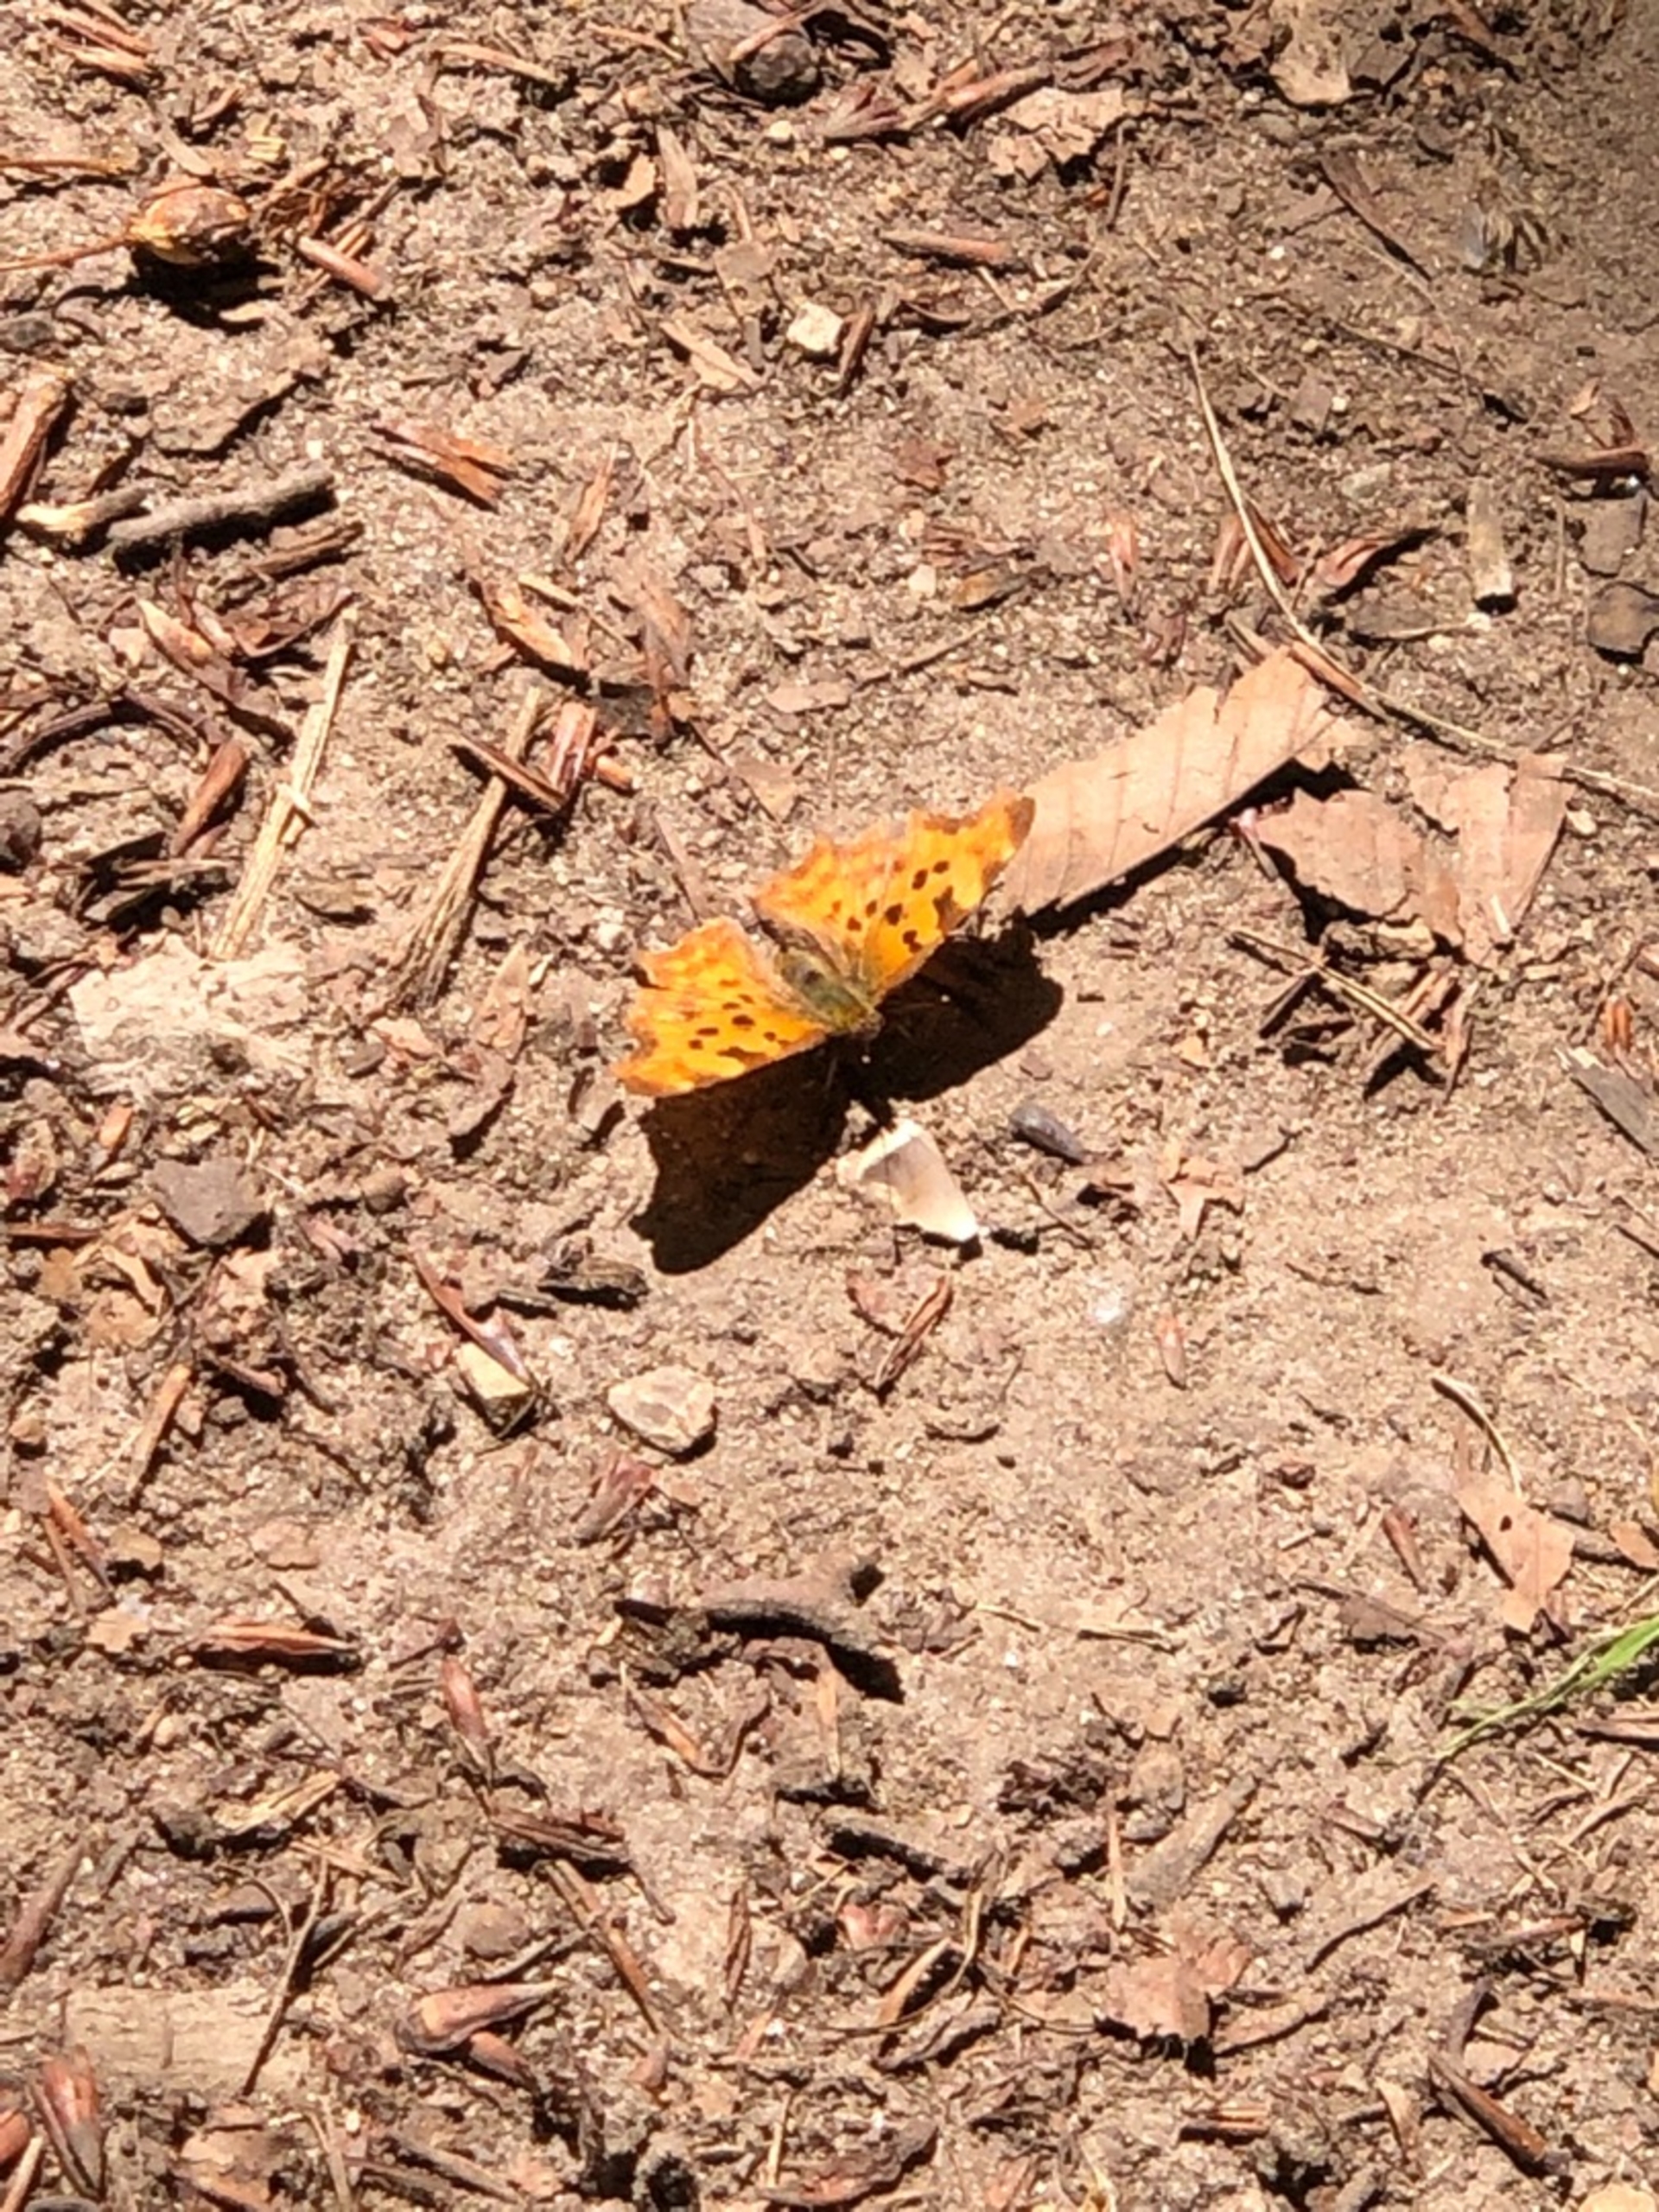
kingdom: Animalia
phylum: Arthropoda
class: Insecta
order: Lepidoptera
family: Nymphalidae
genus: Polygonia
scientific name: Polygonia c-album
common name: Det hvide C
